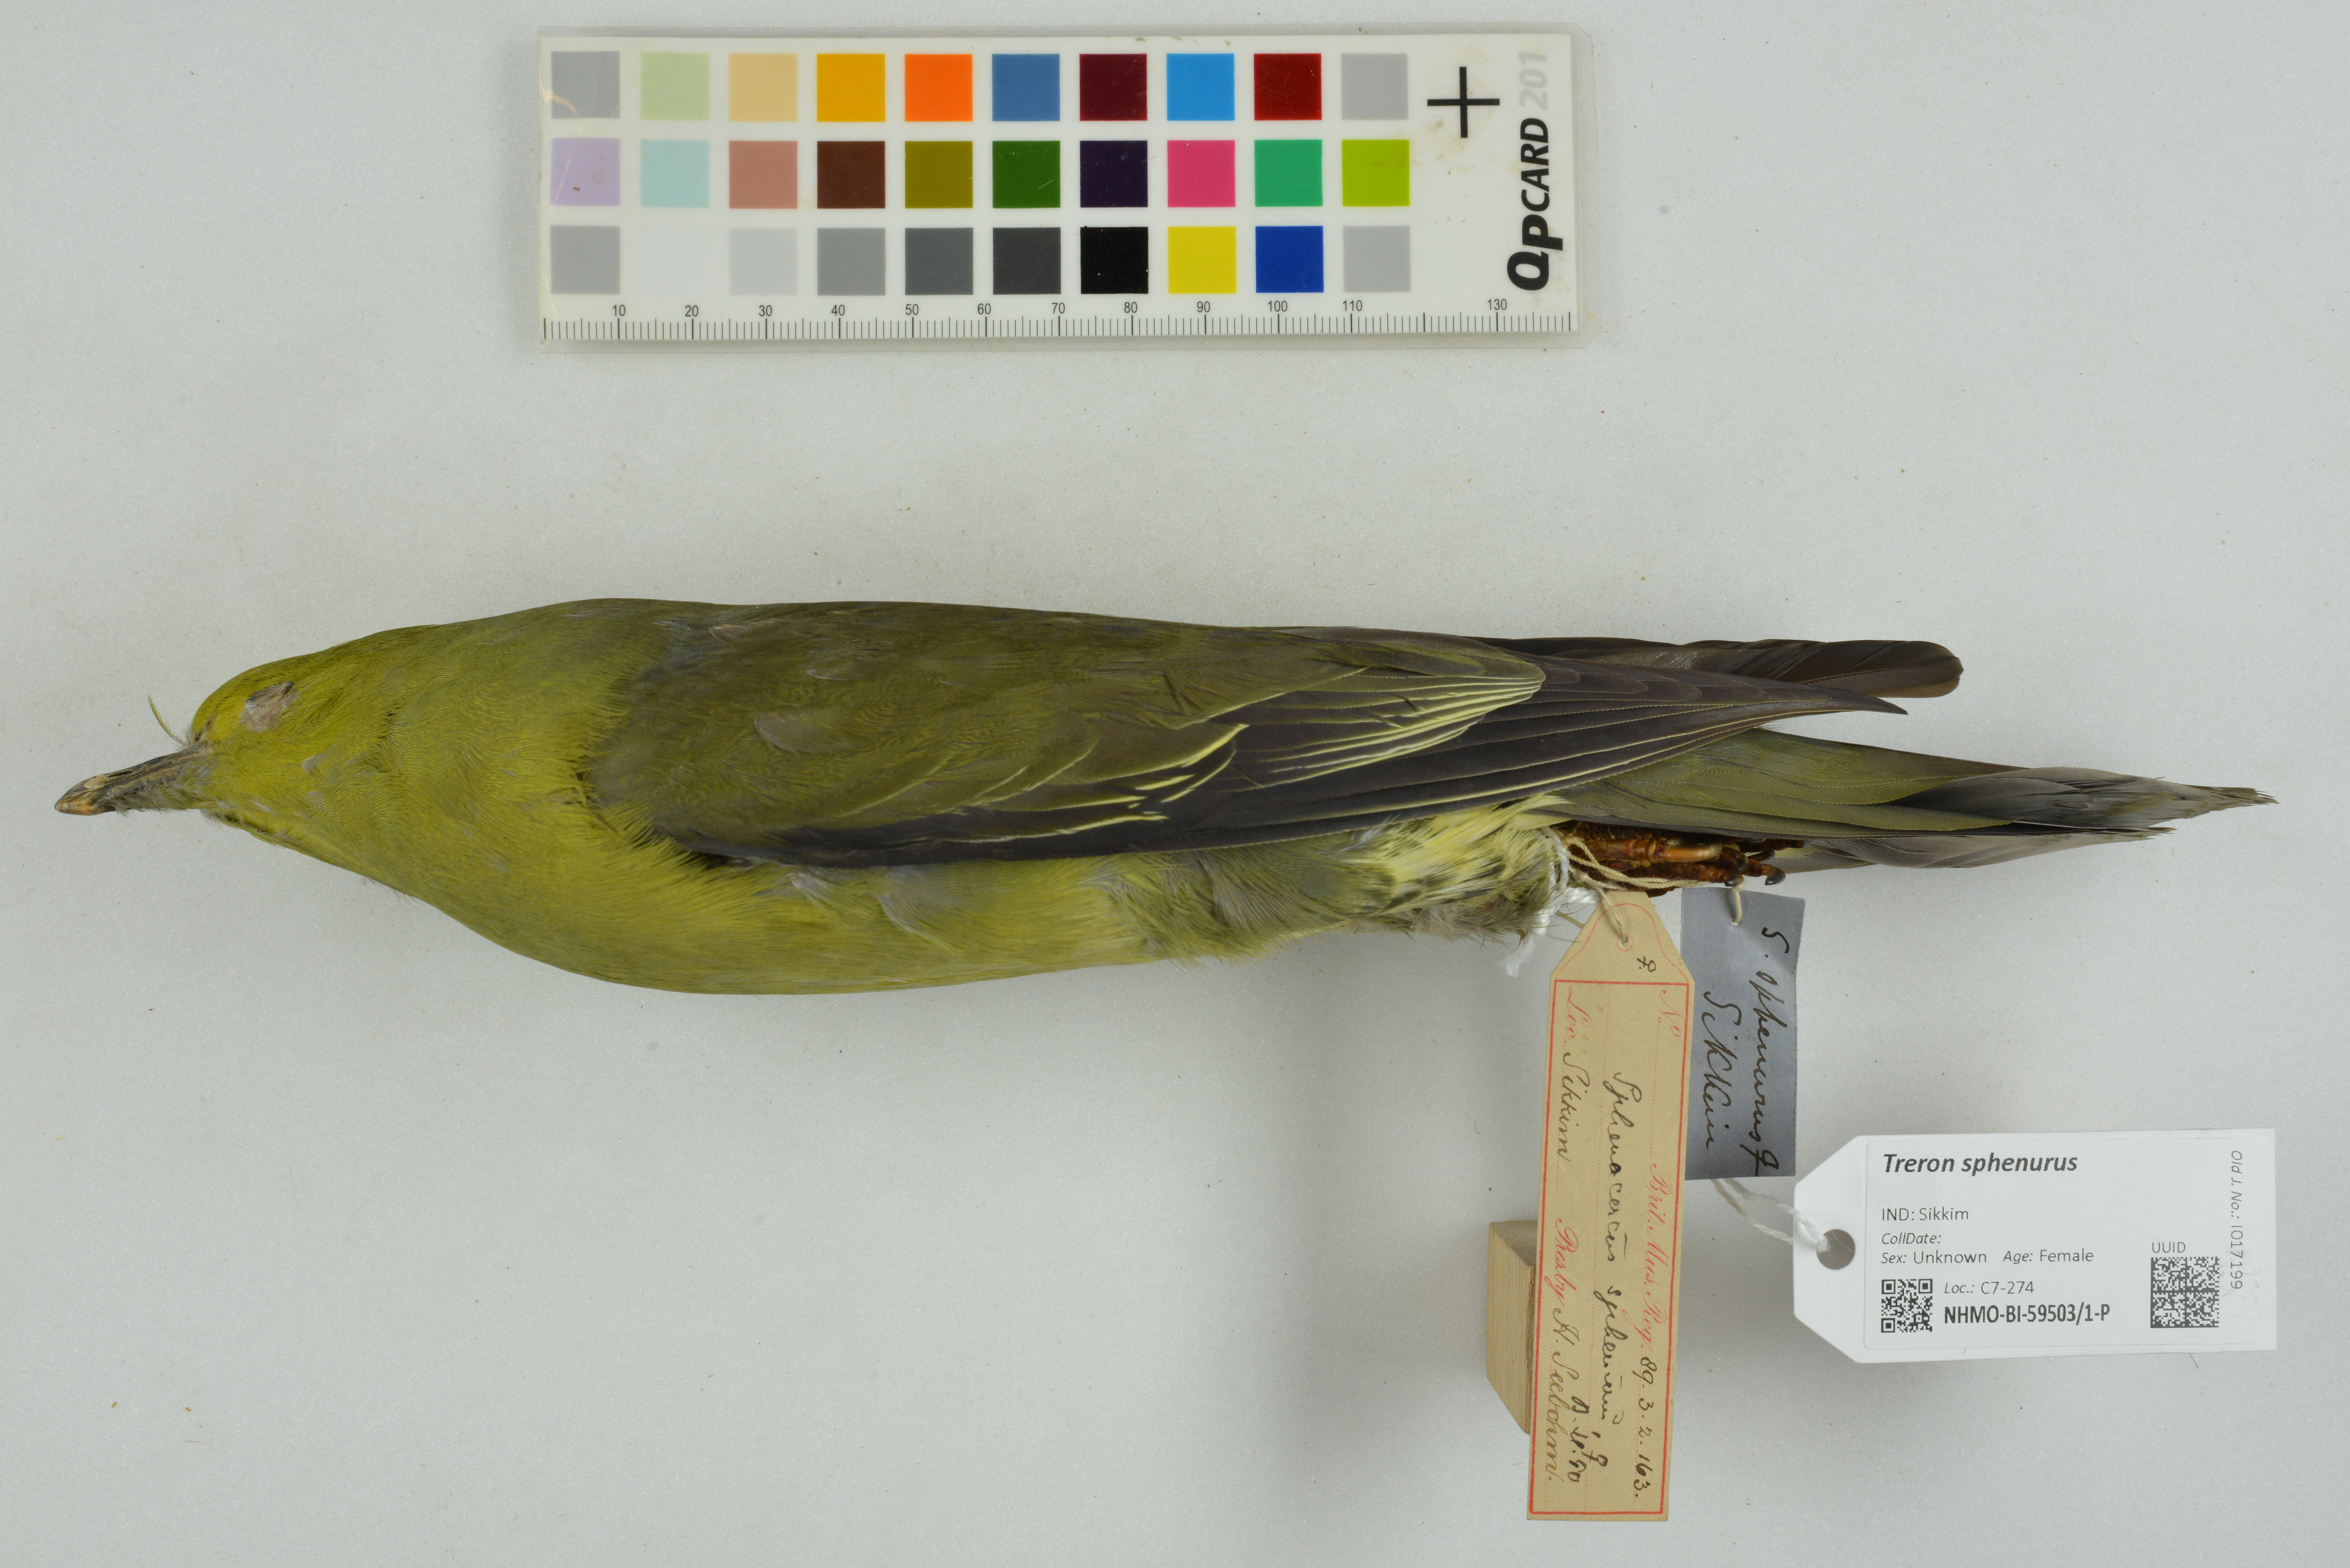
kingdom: Animalia
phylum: Chordata
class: Aves
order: Columbiformes
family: Columbidae
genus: Treron
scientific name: Treron sphenurus
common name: Wedge-tailed green pigeon
